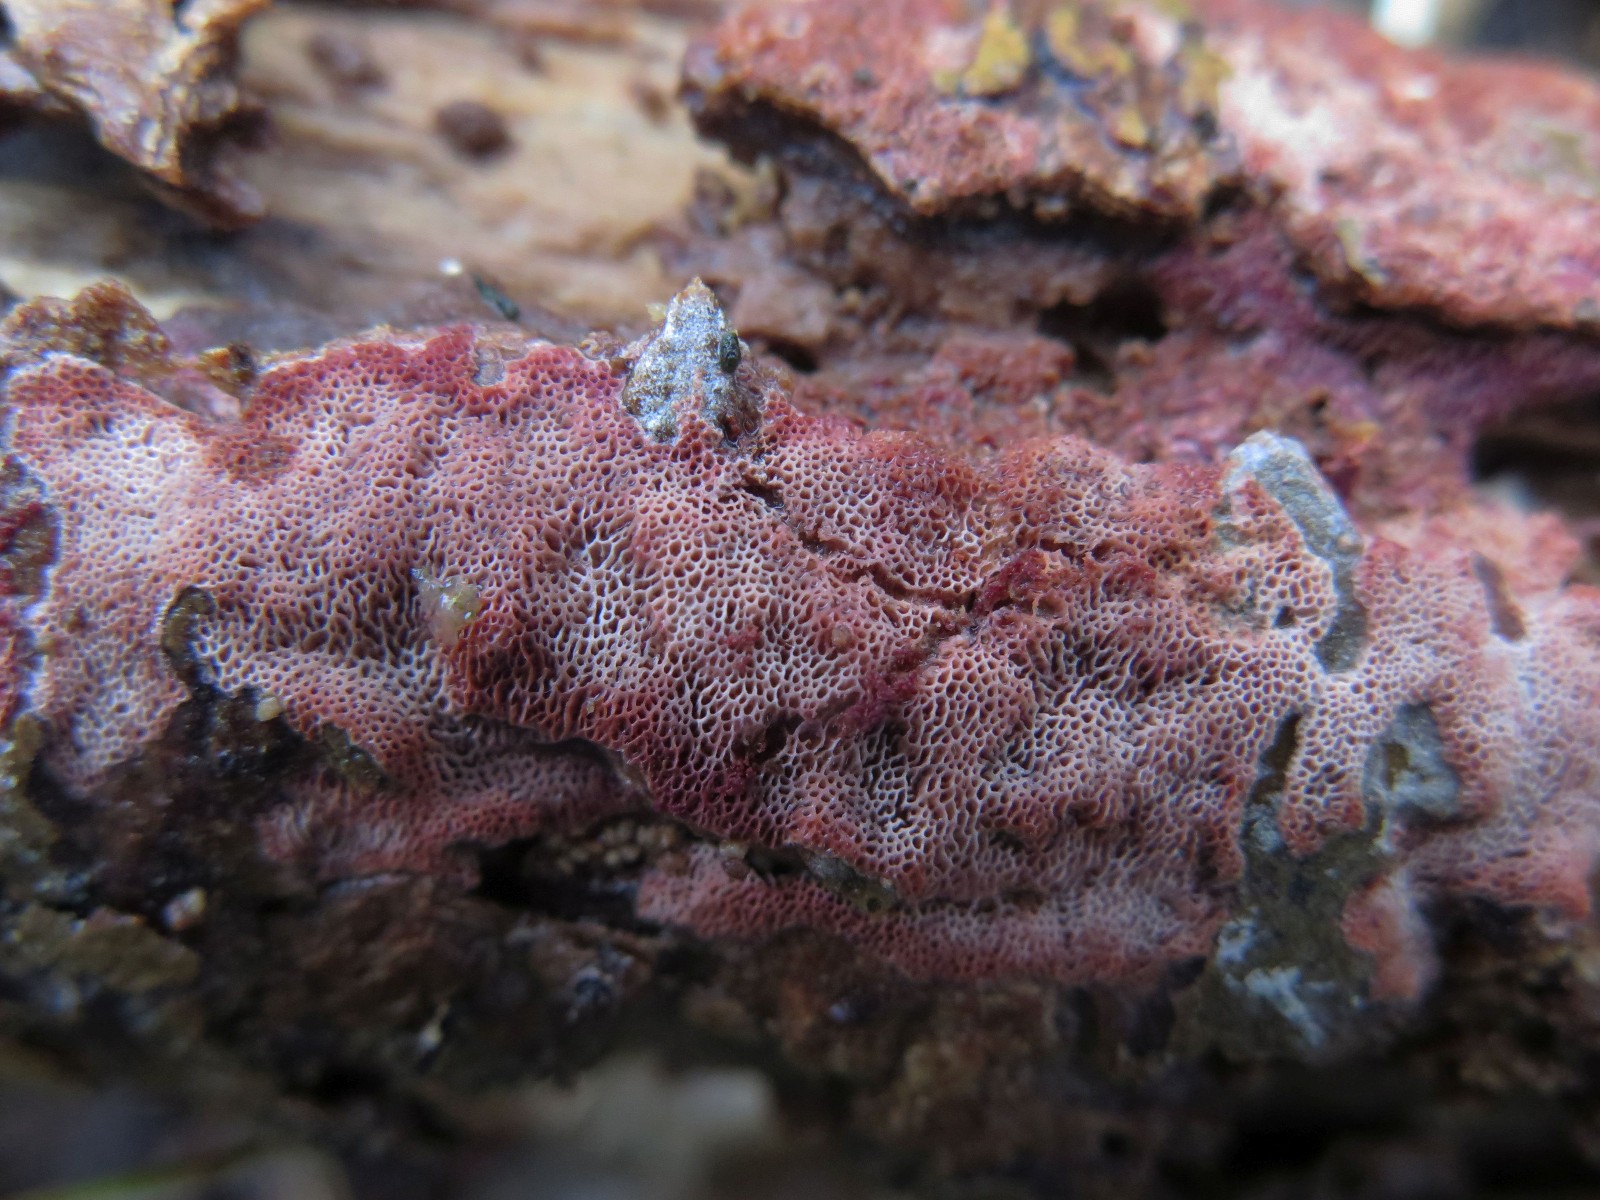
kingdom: Fungi
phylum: Basidiomycota
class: Agaricomycetes
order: Polyporales
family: Irpicaceae
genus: Ceriporia
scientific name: Ceriporia
